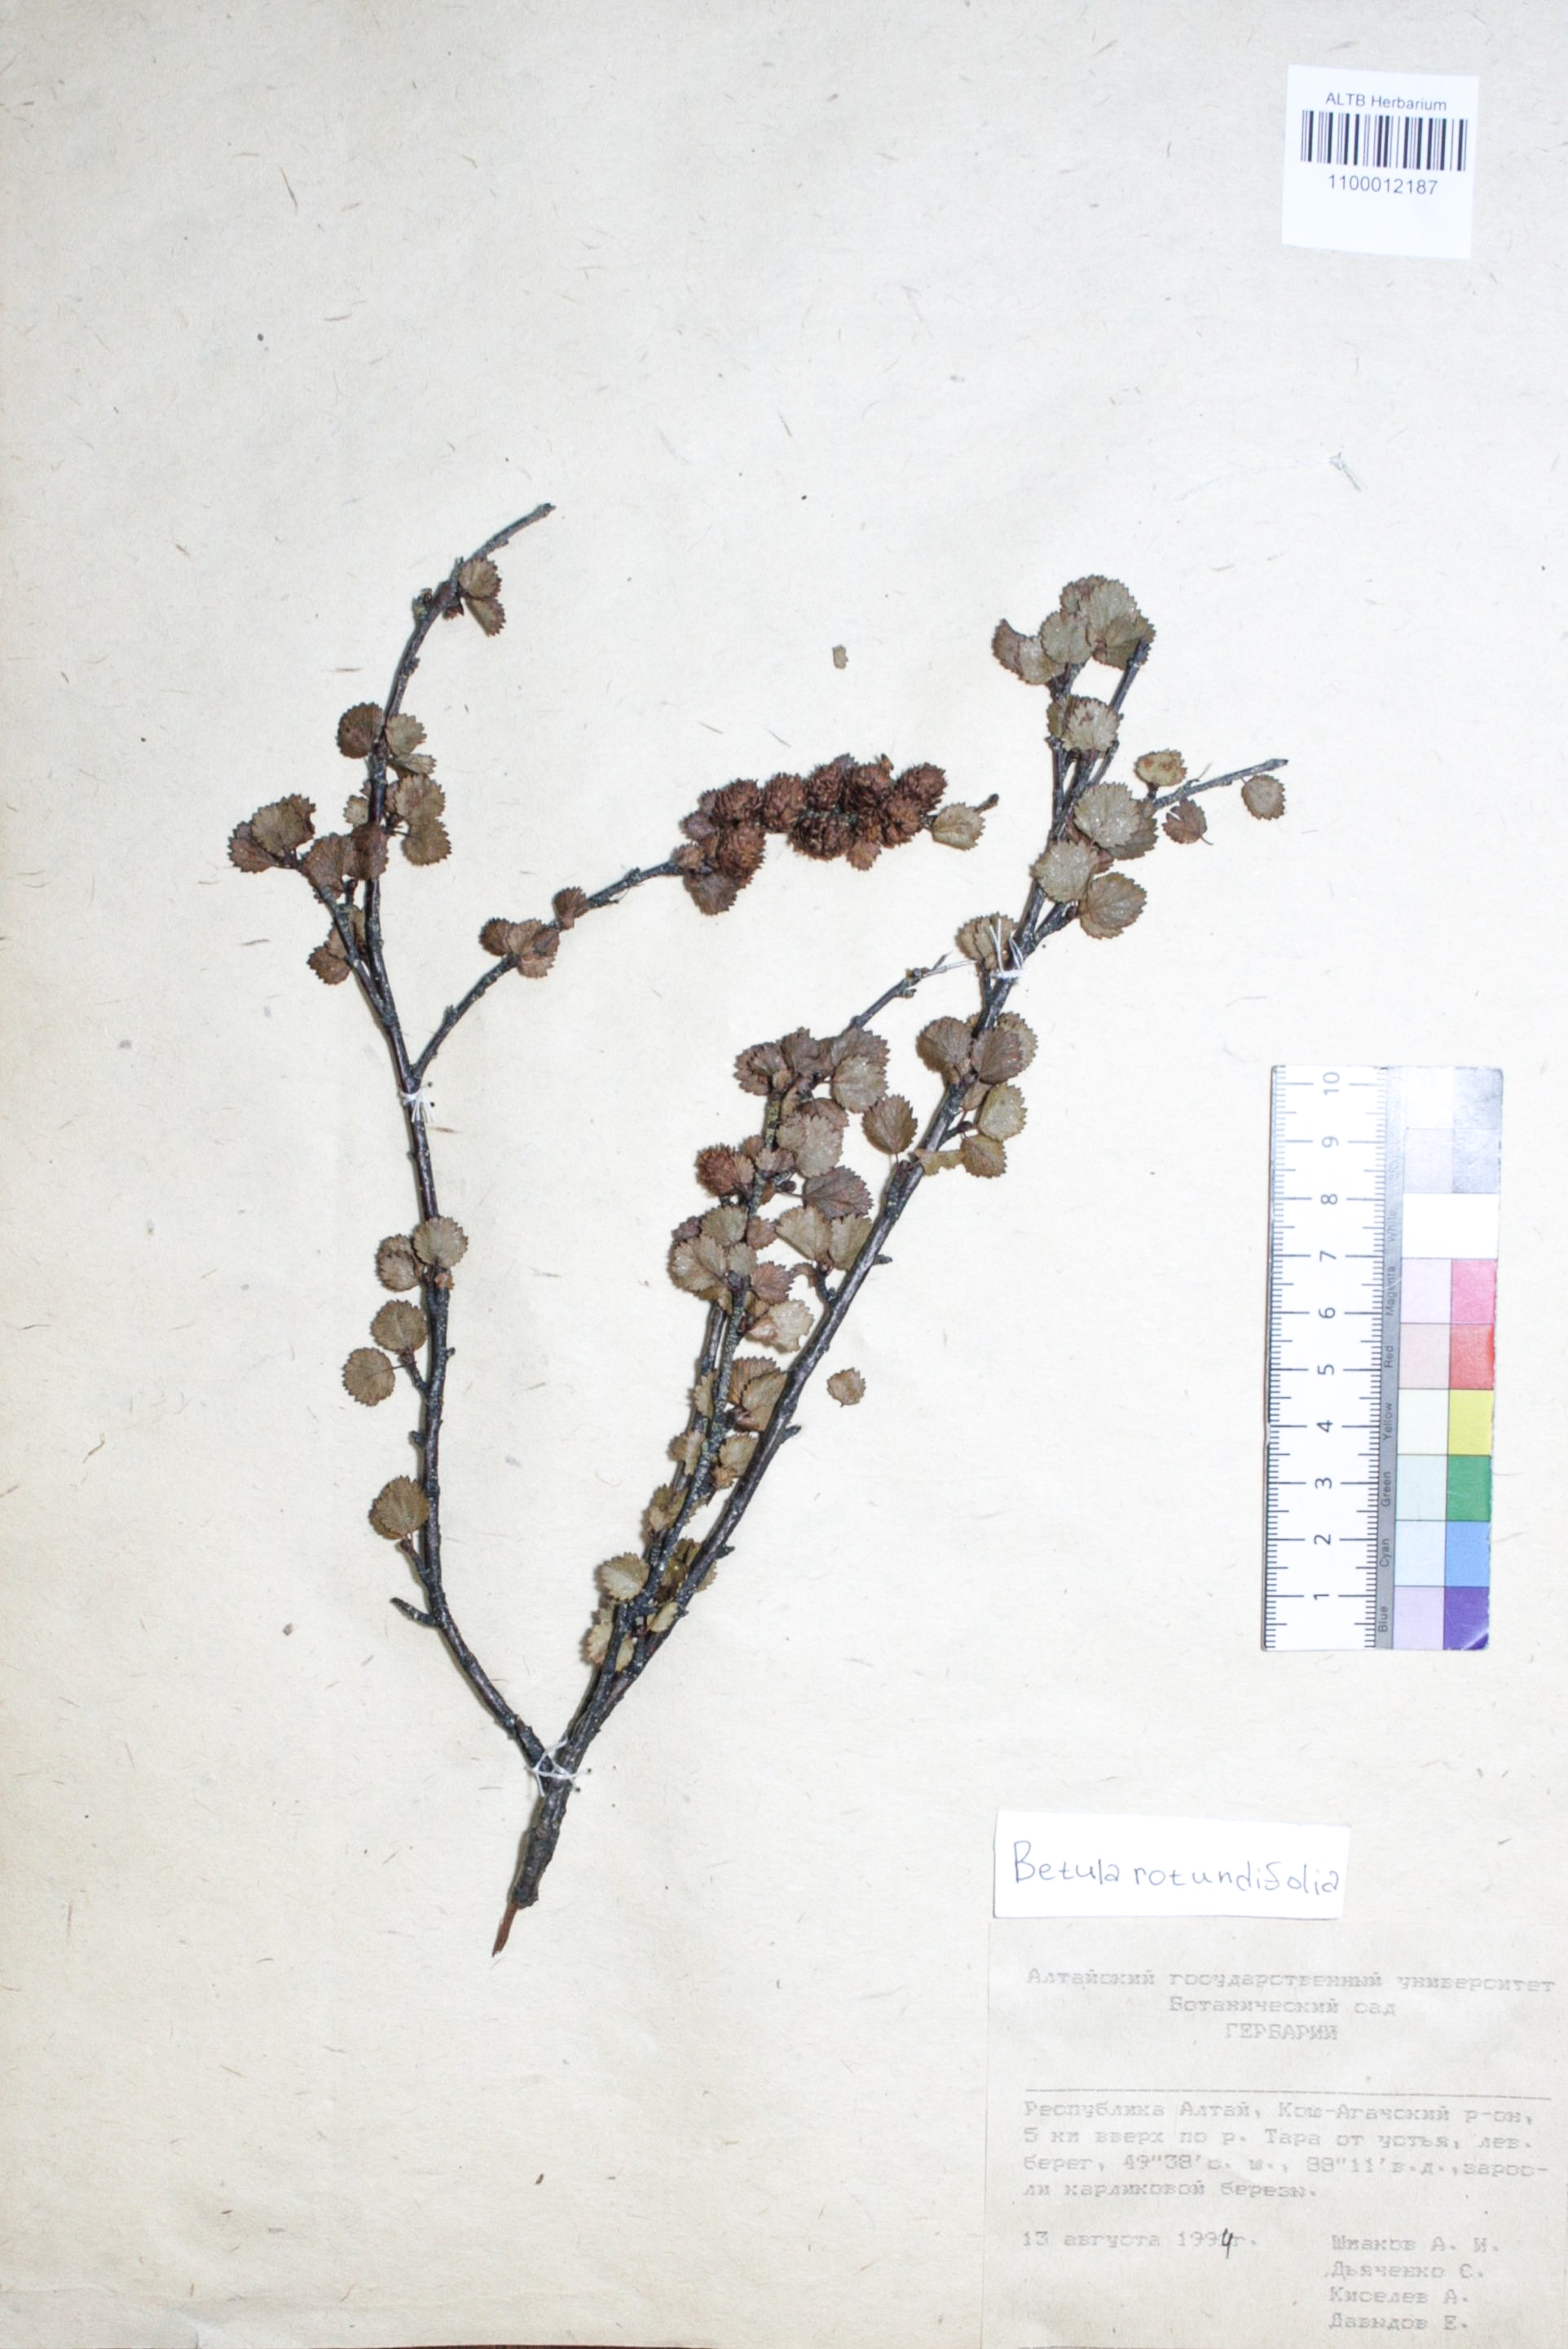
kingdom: Plantae
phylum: Tracheophyta
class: Magnoliopsida
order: Fagales
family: Betulaceae
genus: Betula
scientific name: Betula glandulosa
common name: Dwarf birch
